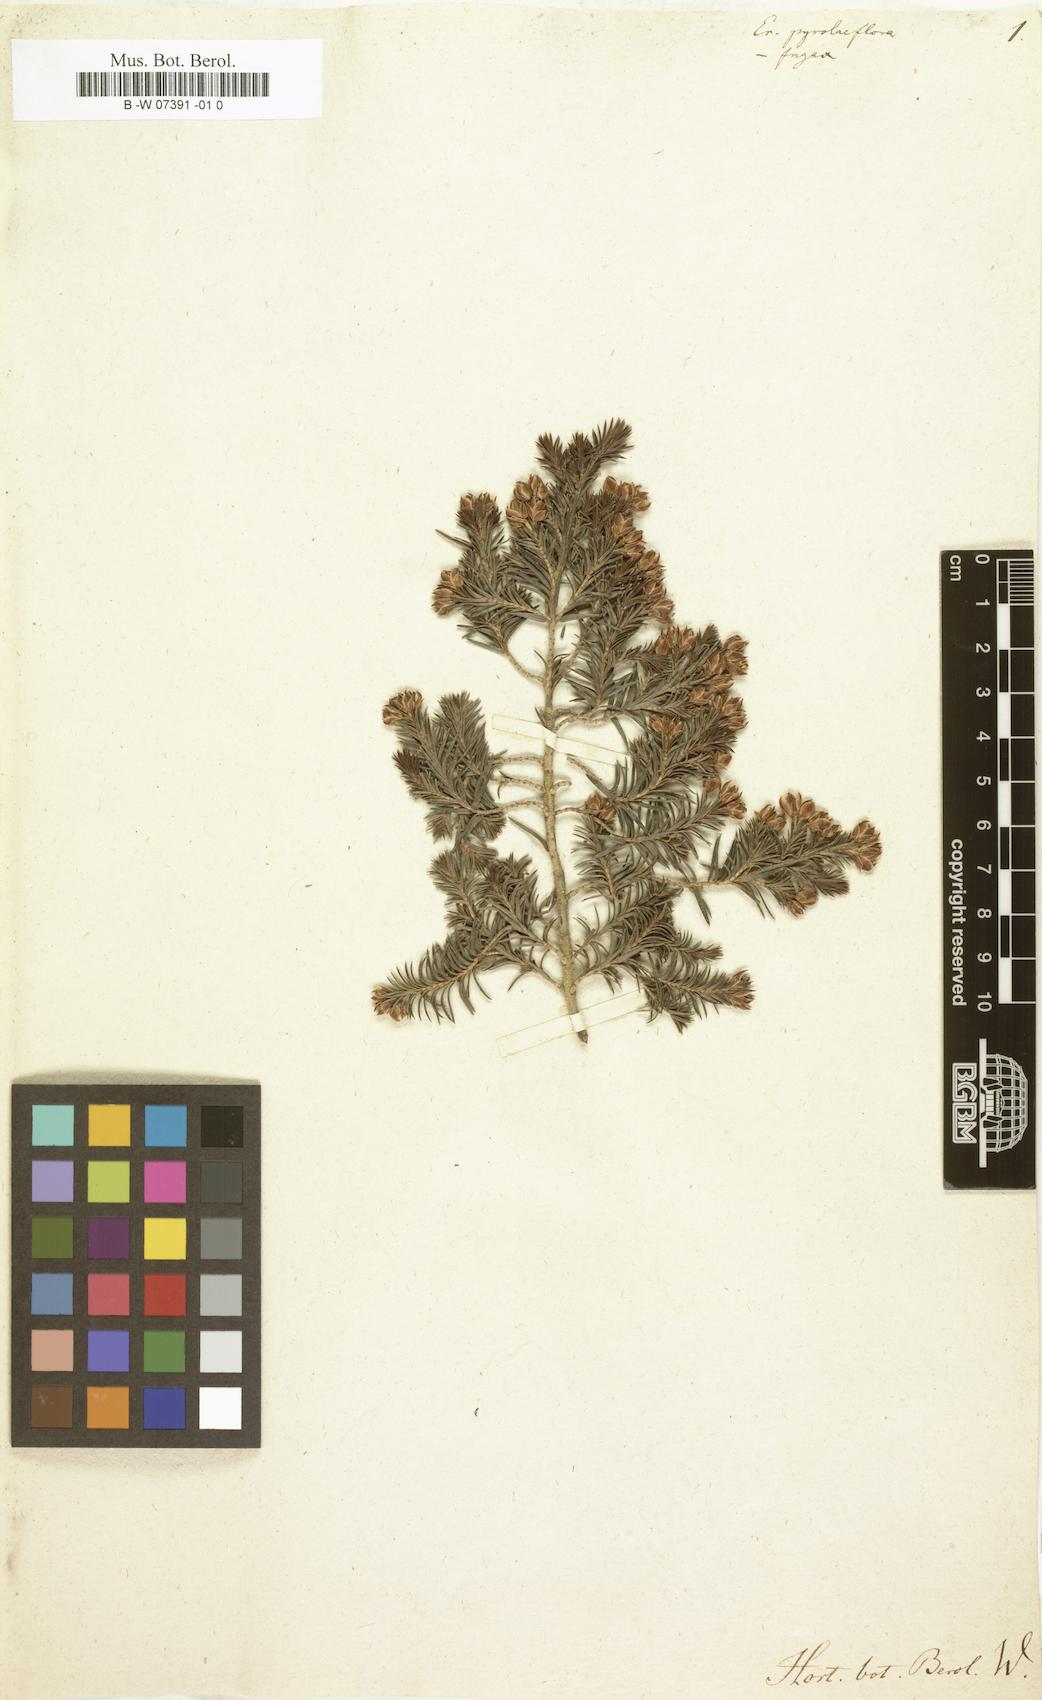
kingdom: Plantae
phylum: Tracheophyta
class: Magnoliopsida
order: Ericales
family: Ericaceae
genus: Erica
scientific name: Erica triflora
